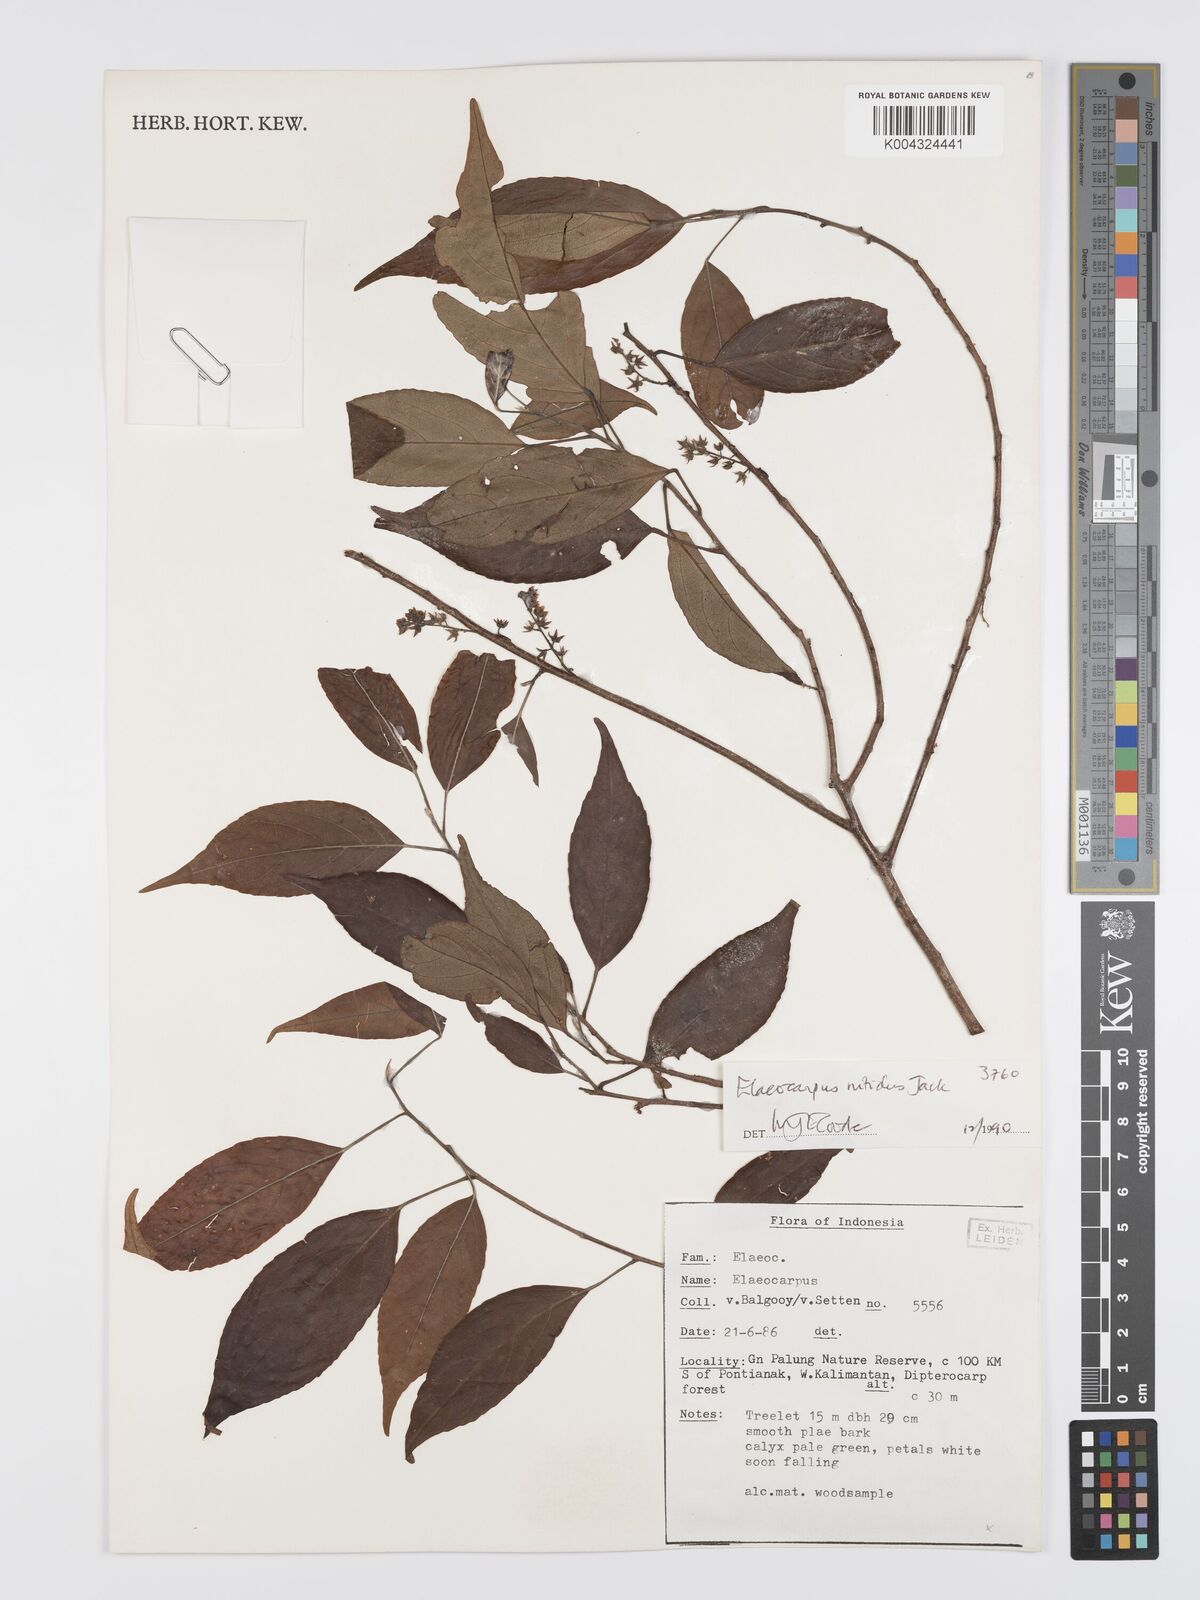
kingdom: Plantae
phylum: Tracheophyta
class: Magnoliopsida
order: Oxalidales
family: Elaeocarpaceae
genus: Elaeocarpus
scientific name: Elaeocarpus nitidus
